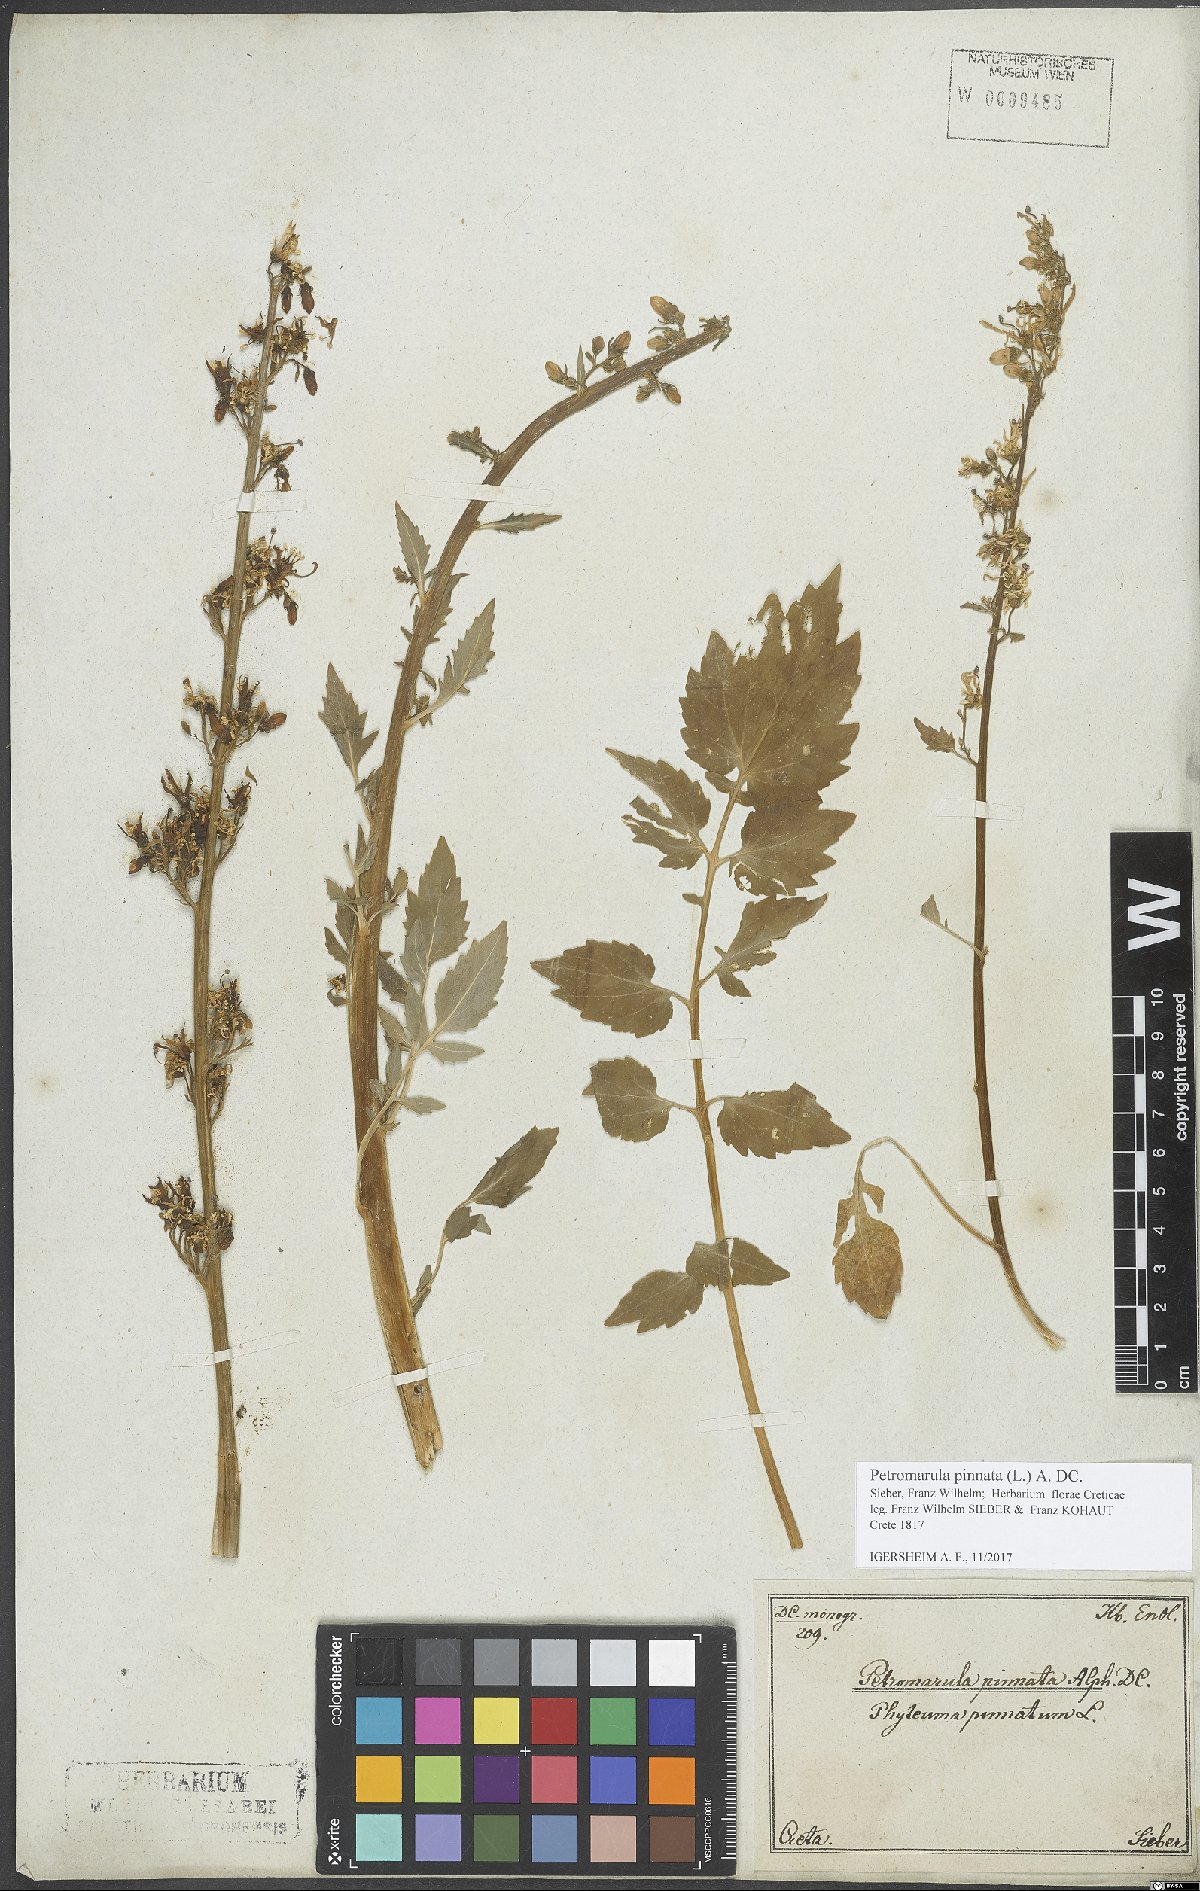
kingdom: Plantae
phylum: Tracheophyta
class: Magnoliopsida
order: Asterales
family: Campanulaceae
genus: Petromarula
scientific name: Petromarula pinnata
